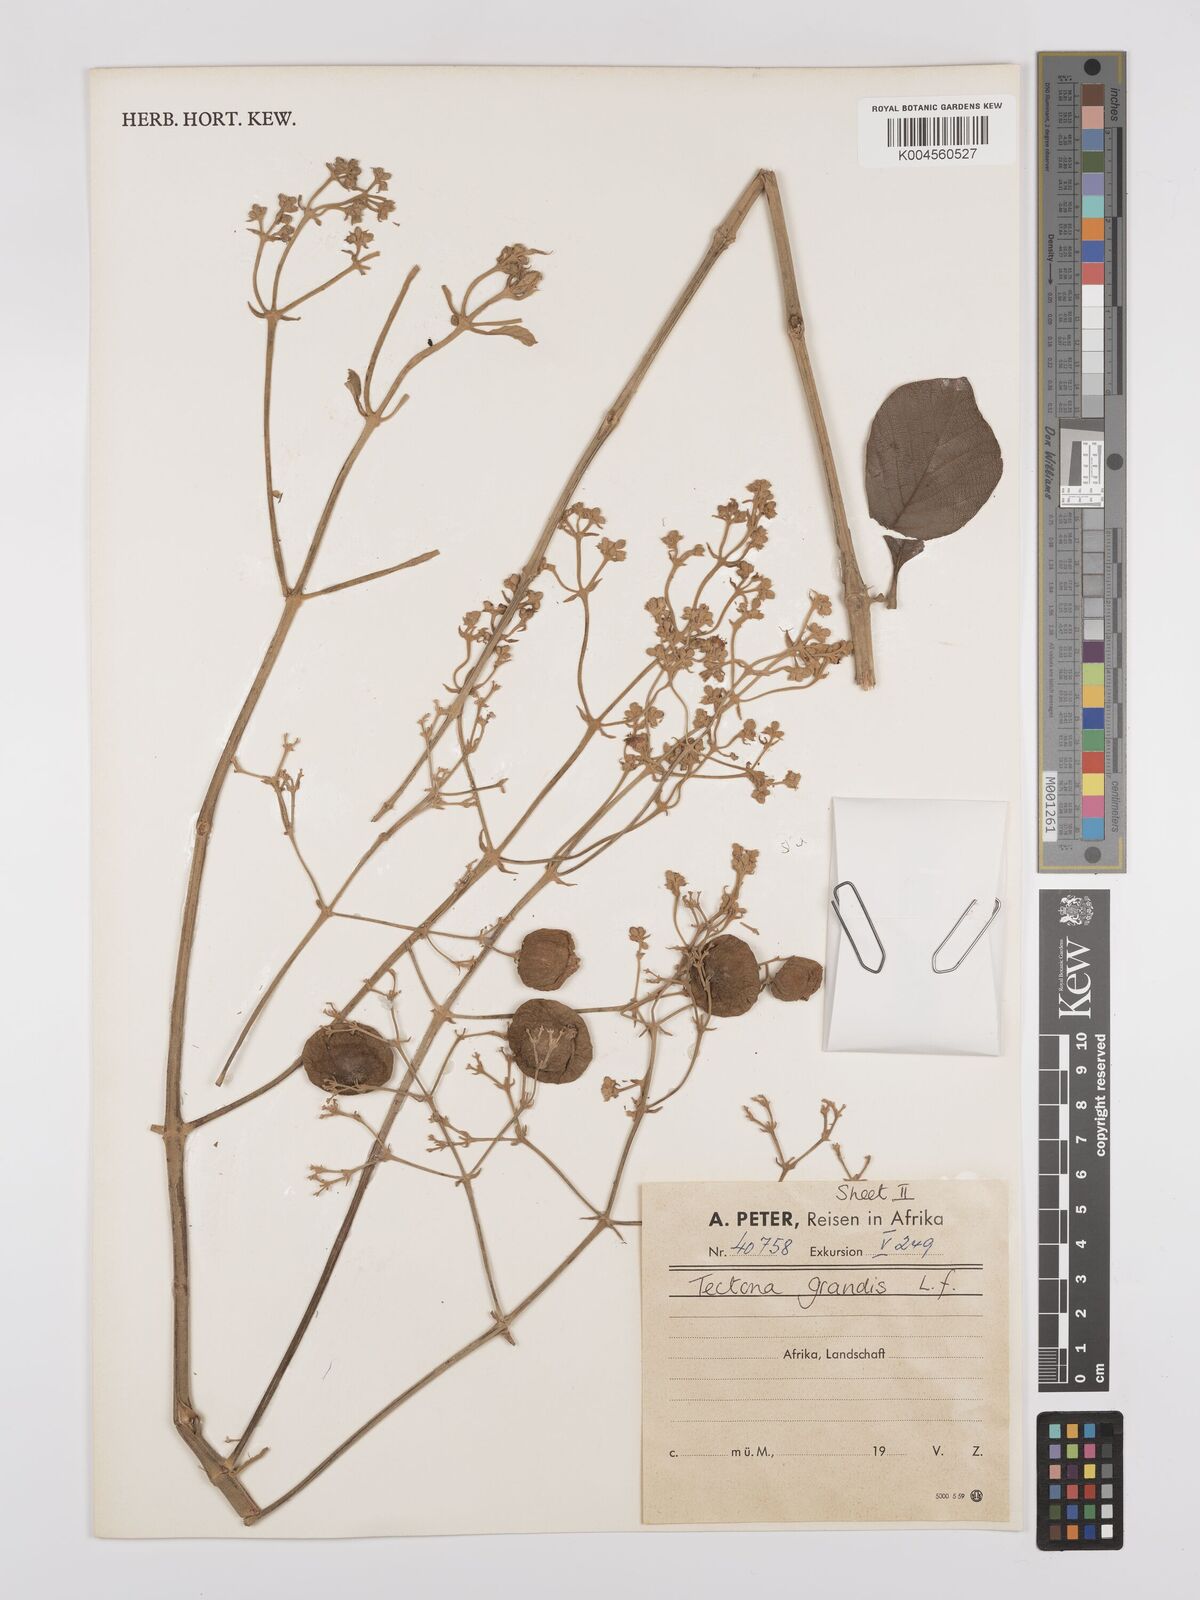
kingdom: Plantae
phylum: Tracheophyta
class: Magnoliopsida
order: Lamiales
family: Lamiaceae
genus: Tectona
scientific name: Tectona grandis
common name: Teak
